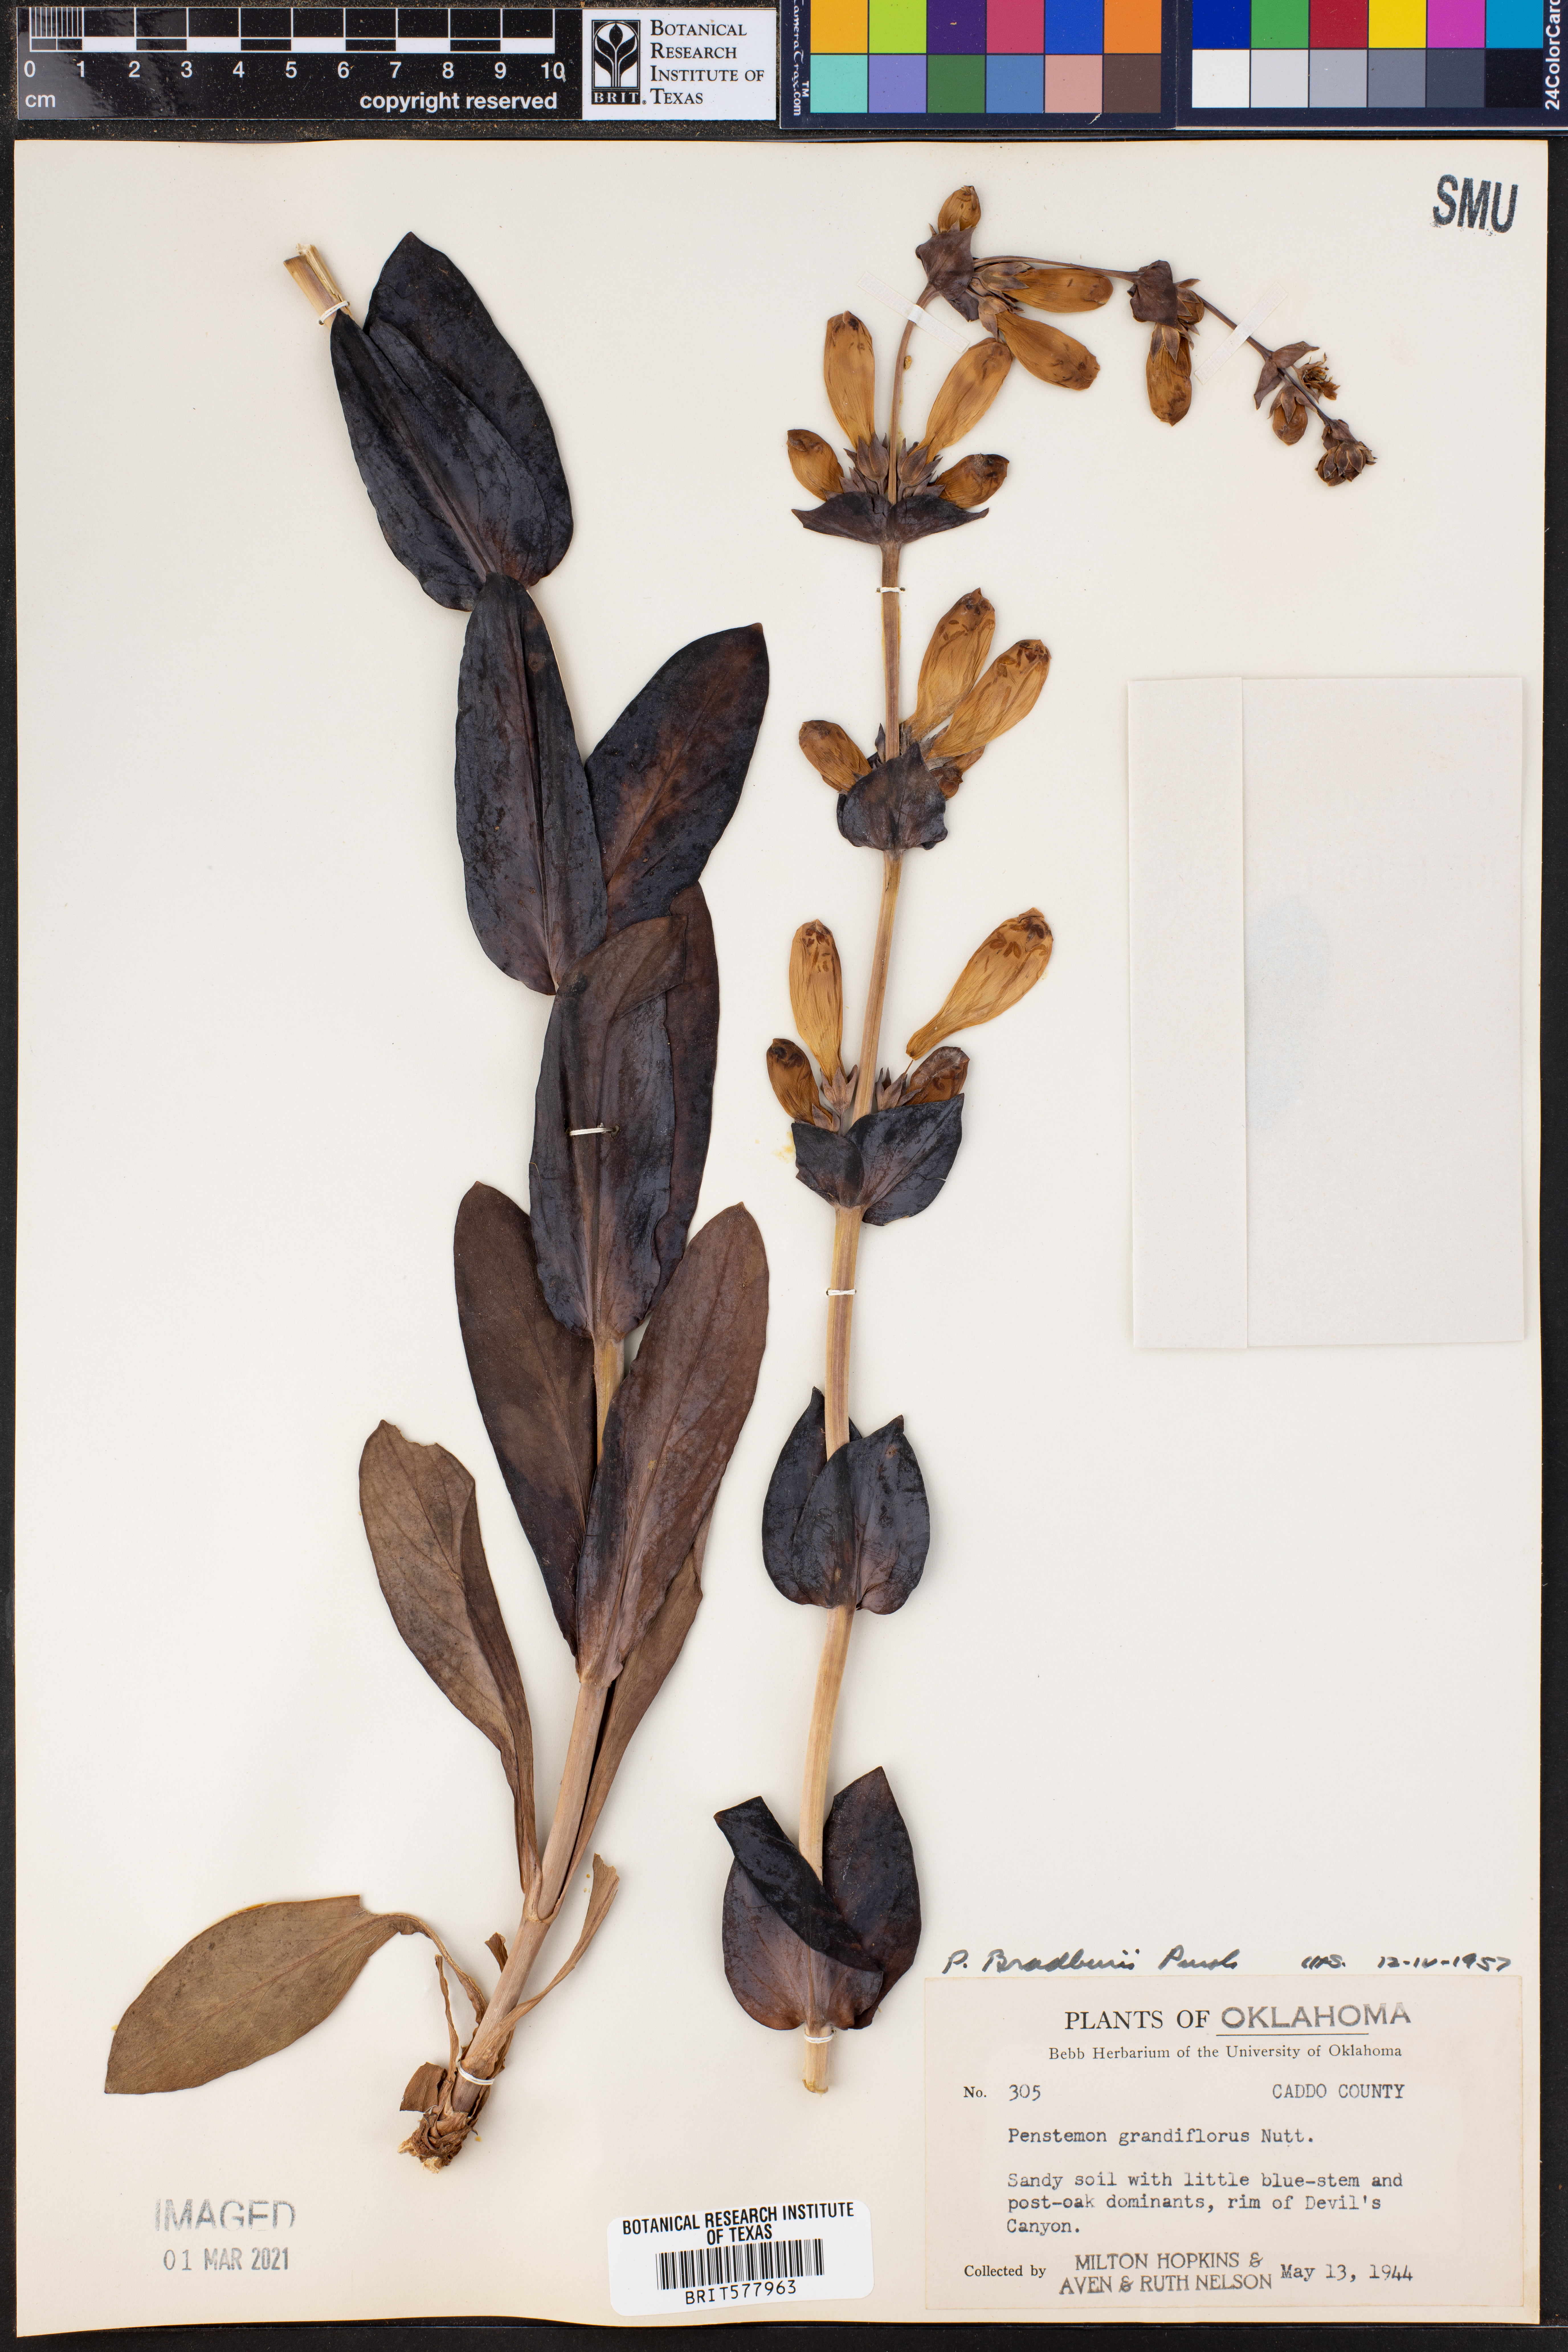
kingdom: Plantae
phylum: Tracheophyta
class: Magnoliopsida
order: Lamiales
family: Plantaginaceae
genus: Penstemon
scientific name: Penstemon bradburyi
